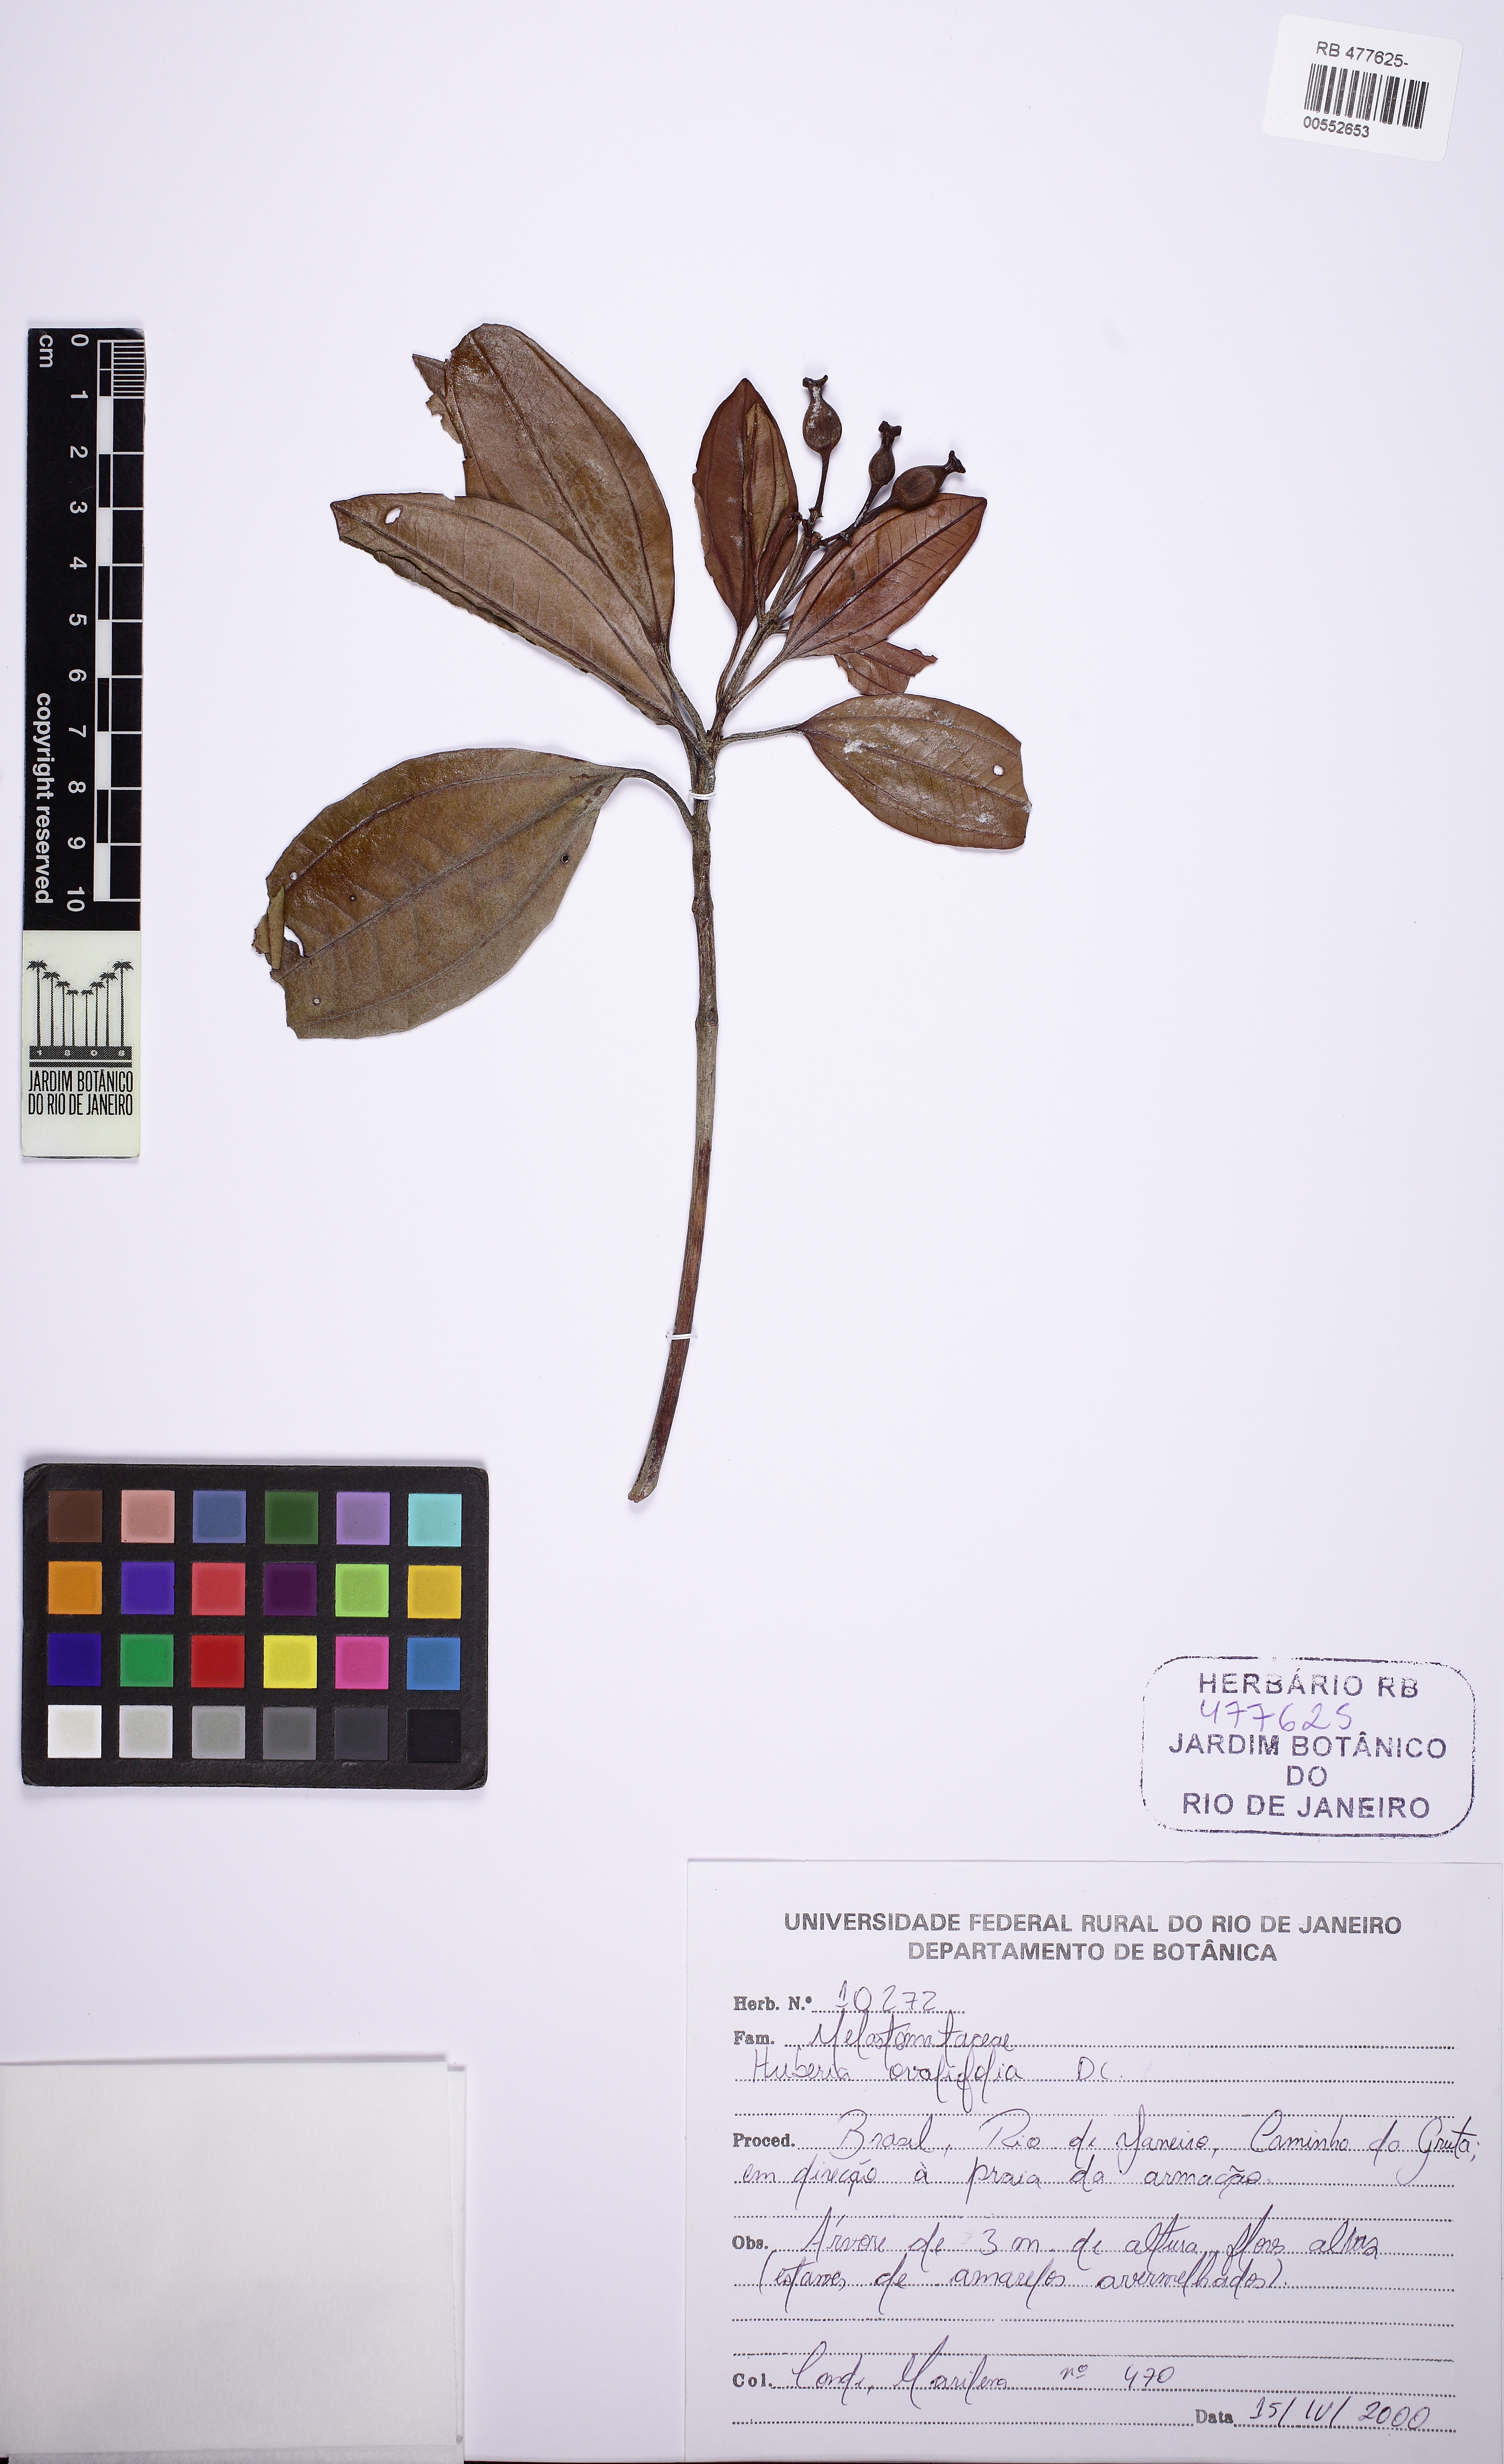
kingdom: Plantae
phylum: Tracheophyta
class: Magnoliopsida
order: Myrtales
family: Melastomataceae
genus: Huberia
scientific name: Huberia ovalifolia
